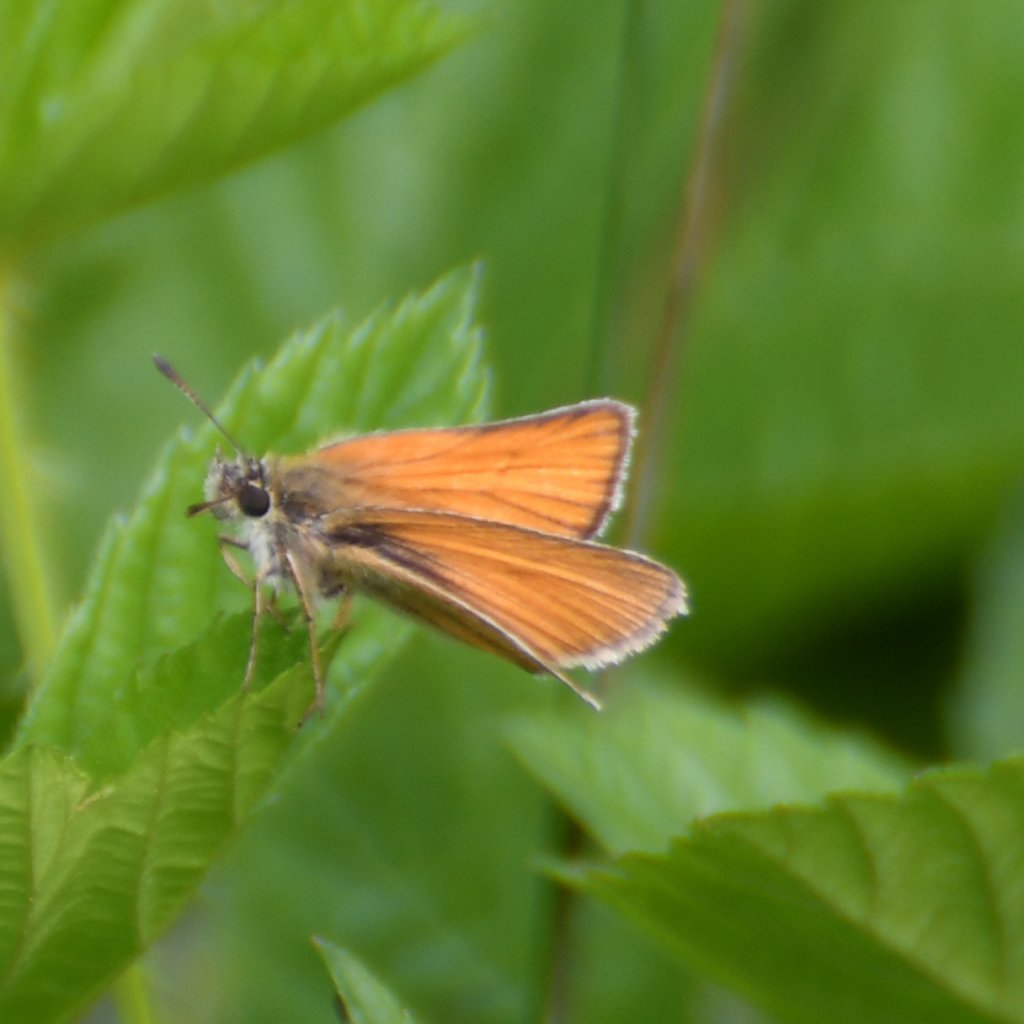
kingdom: Animalia
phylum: Arthropoda
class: Insecta
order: Lepidoptera
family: Hesperiidae
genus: Thymelicus
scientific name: Thymelicus lineola
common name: European Skipper
